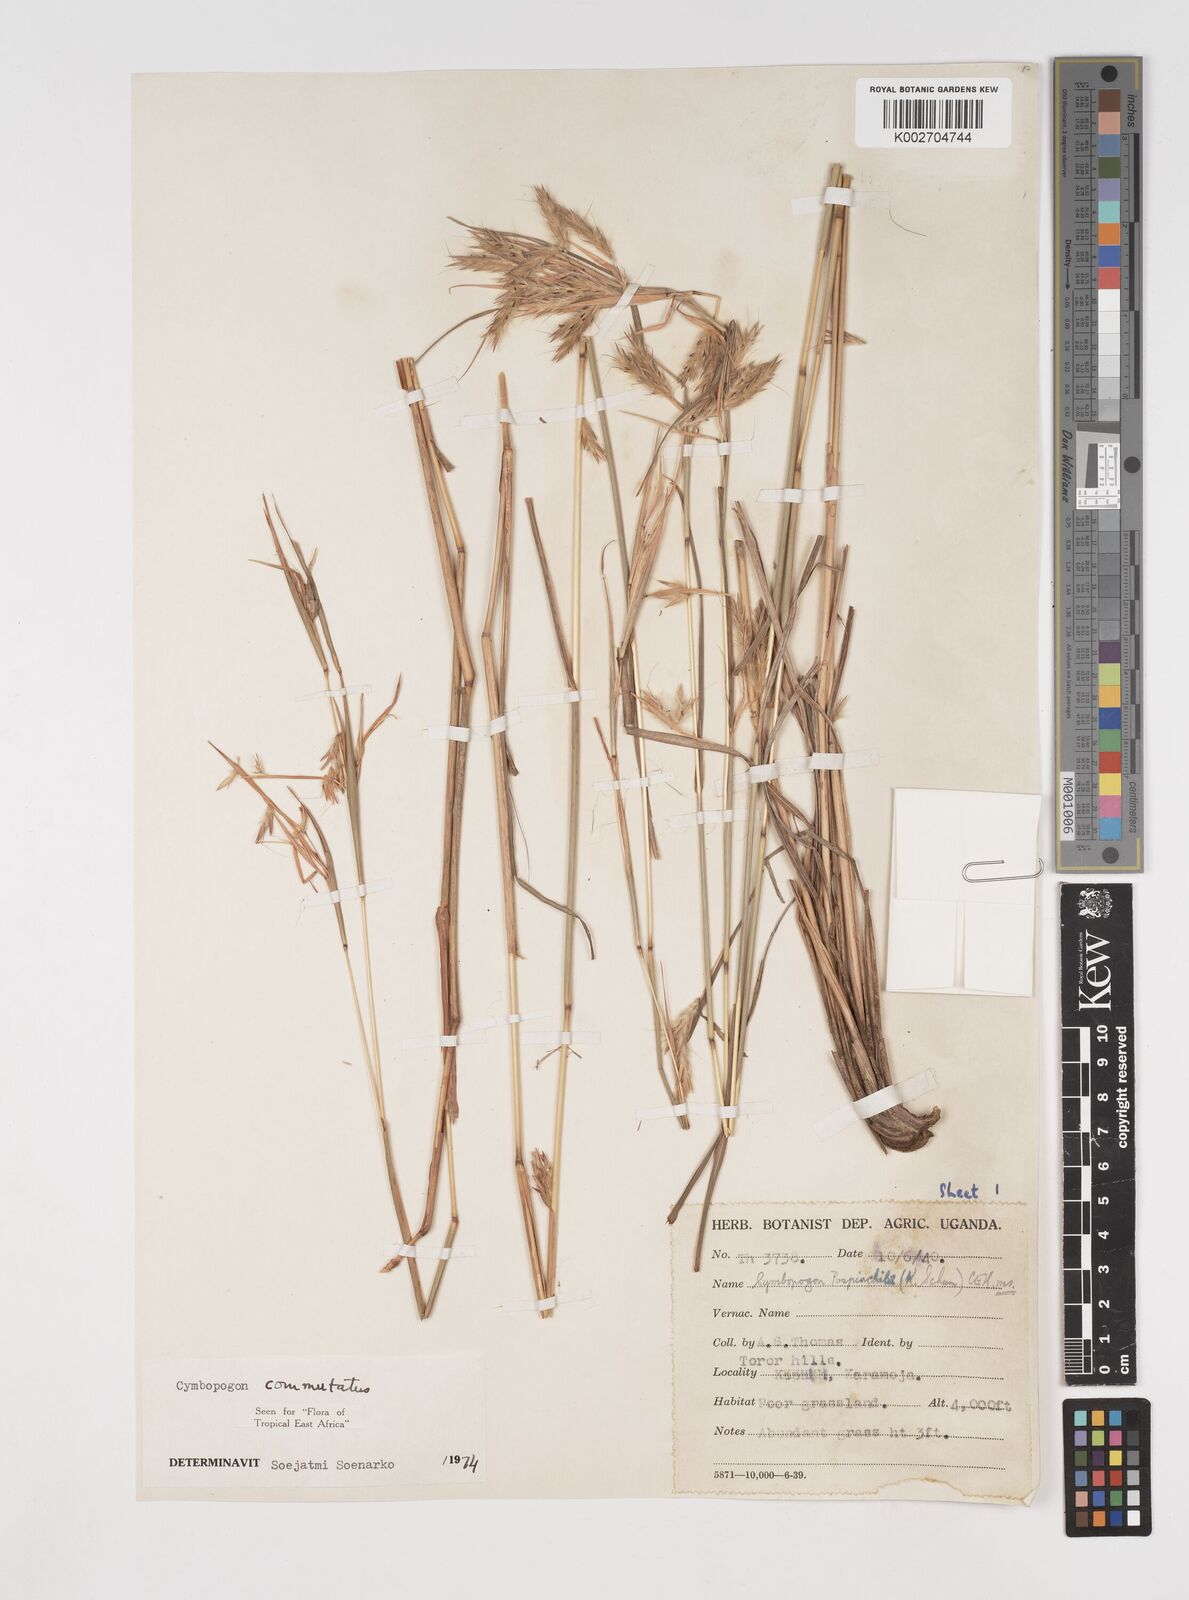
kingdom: Plantae
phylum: Tracheophyta
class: Liliopsida
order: Poales
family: Poaceae
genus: Cymbopogon
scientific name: Cymbopogon commutatus
